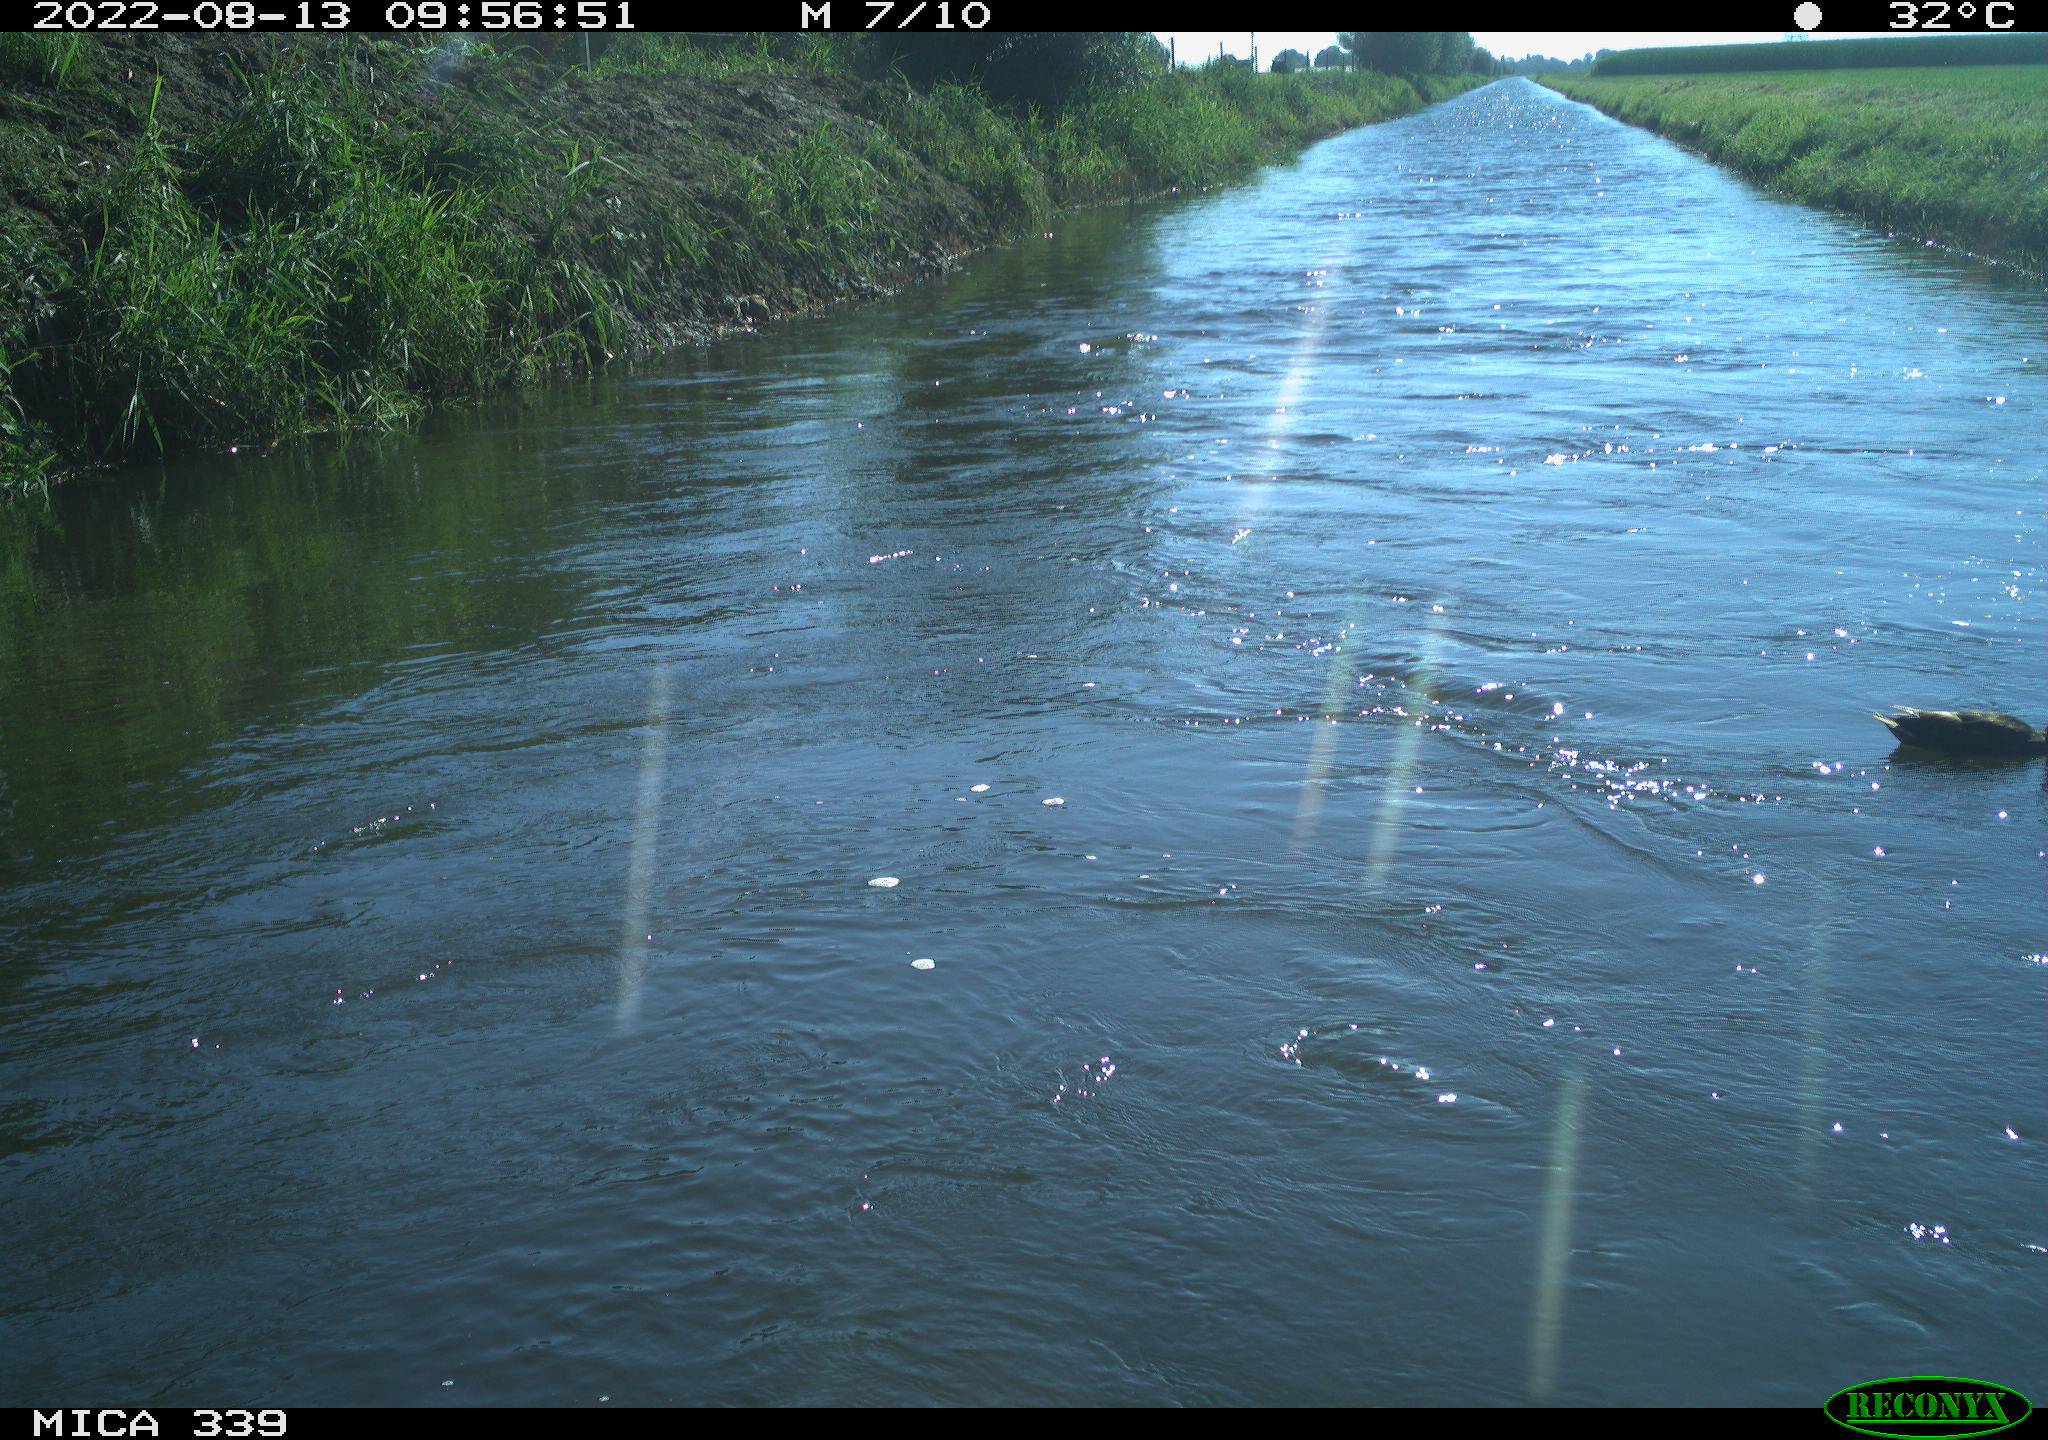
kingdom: Animalia
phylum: Chordata
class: Aves
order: Anseriformes
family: Anatidae
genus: Anas
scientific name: Anas platyrhynchos
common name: Mallard
